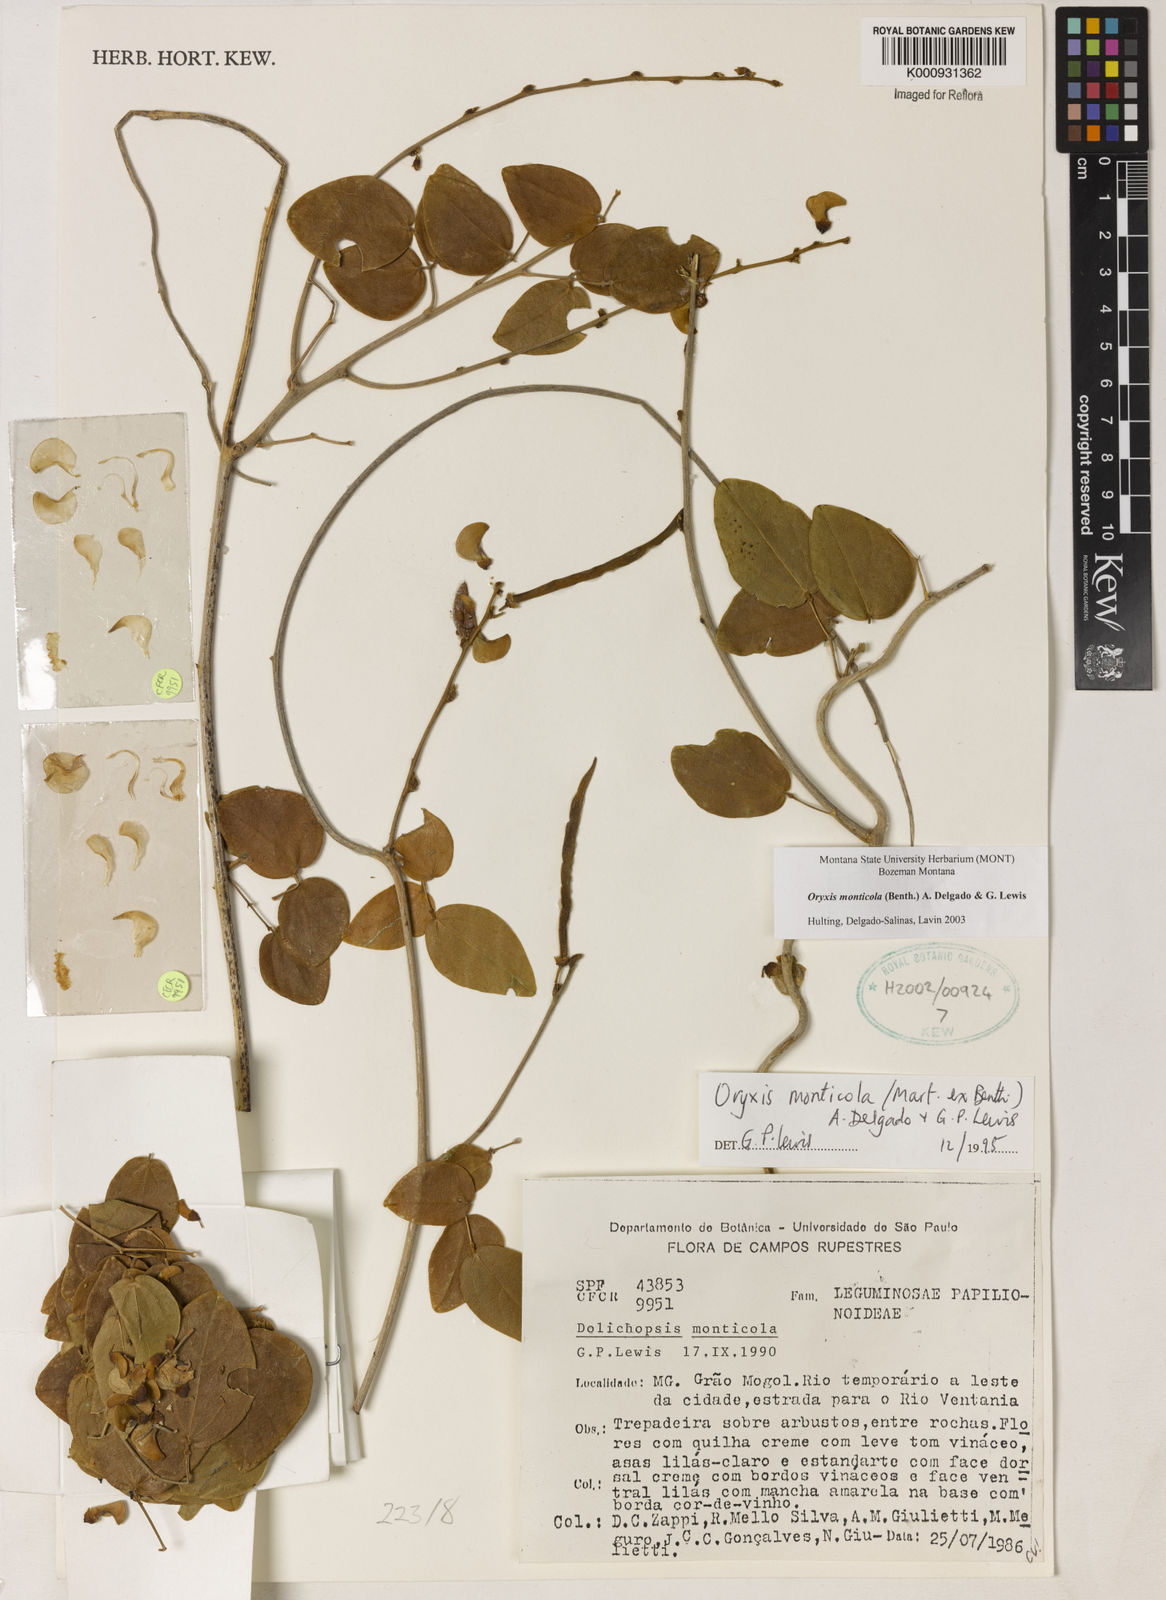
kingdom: Plantae
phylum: Tracheophyta
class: Magnoliopsida
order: Fabales
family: Fabaceae
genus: Dolichopsis
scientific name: Dolichopsis monticola
